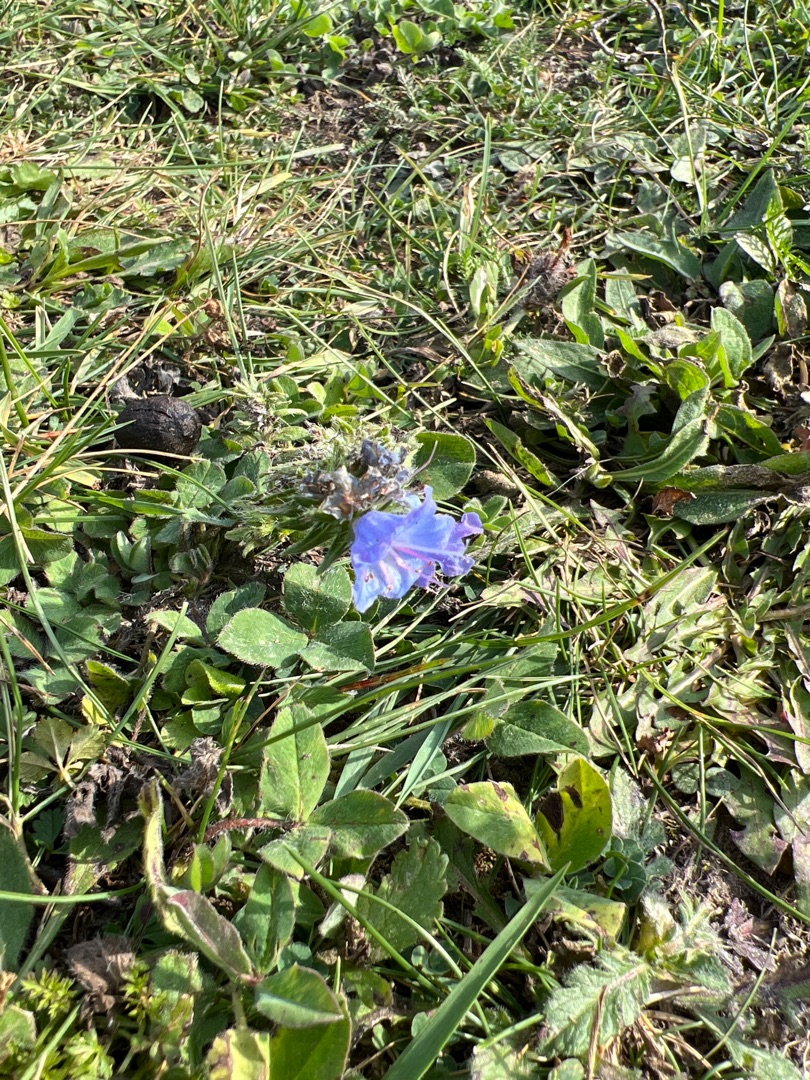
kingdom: Plantae
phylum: Tracheophyta
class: Magnoliopsida
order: Boraginales
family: Boraginaceae
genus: Echium
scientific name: Echium vulgare
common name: Slangehoved
